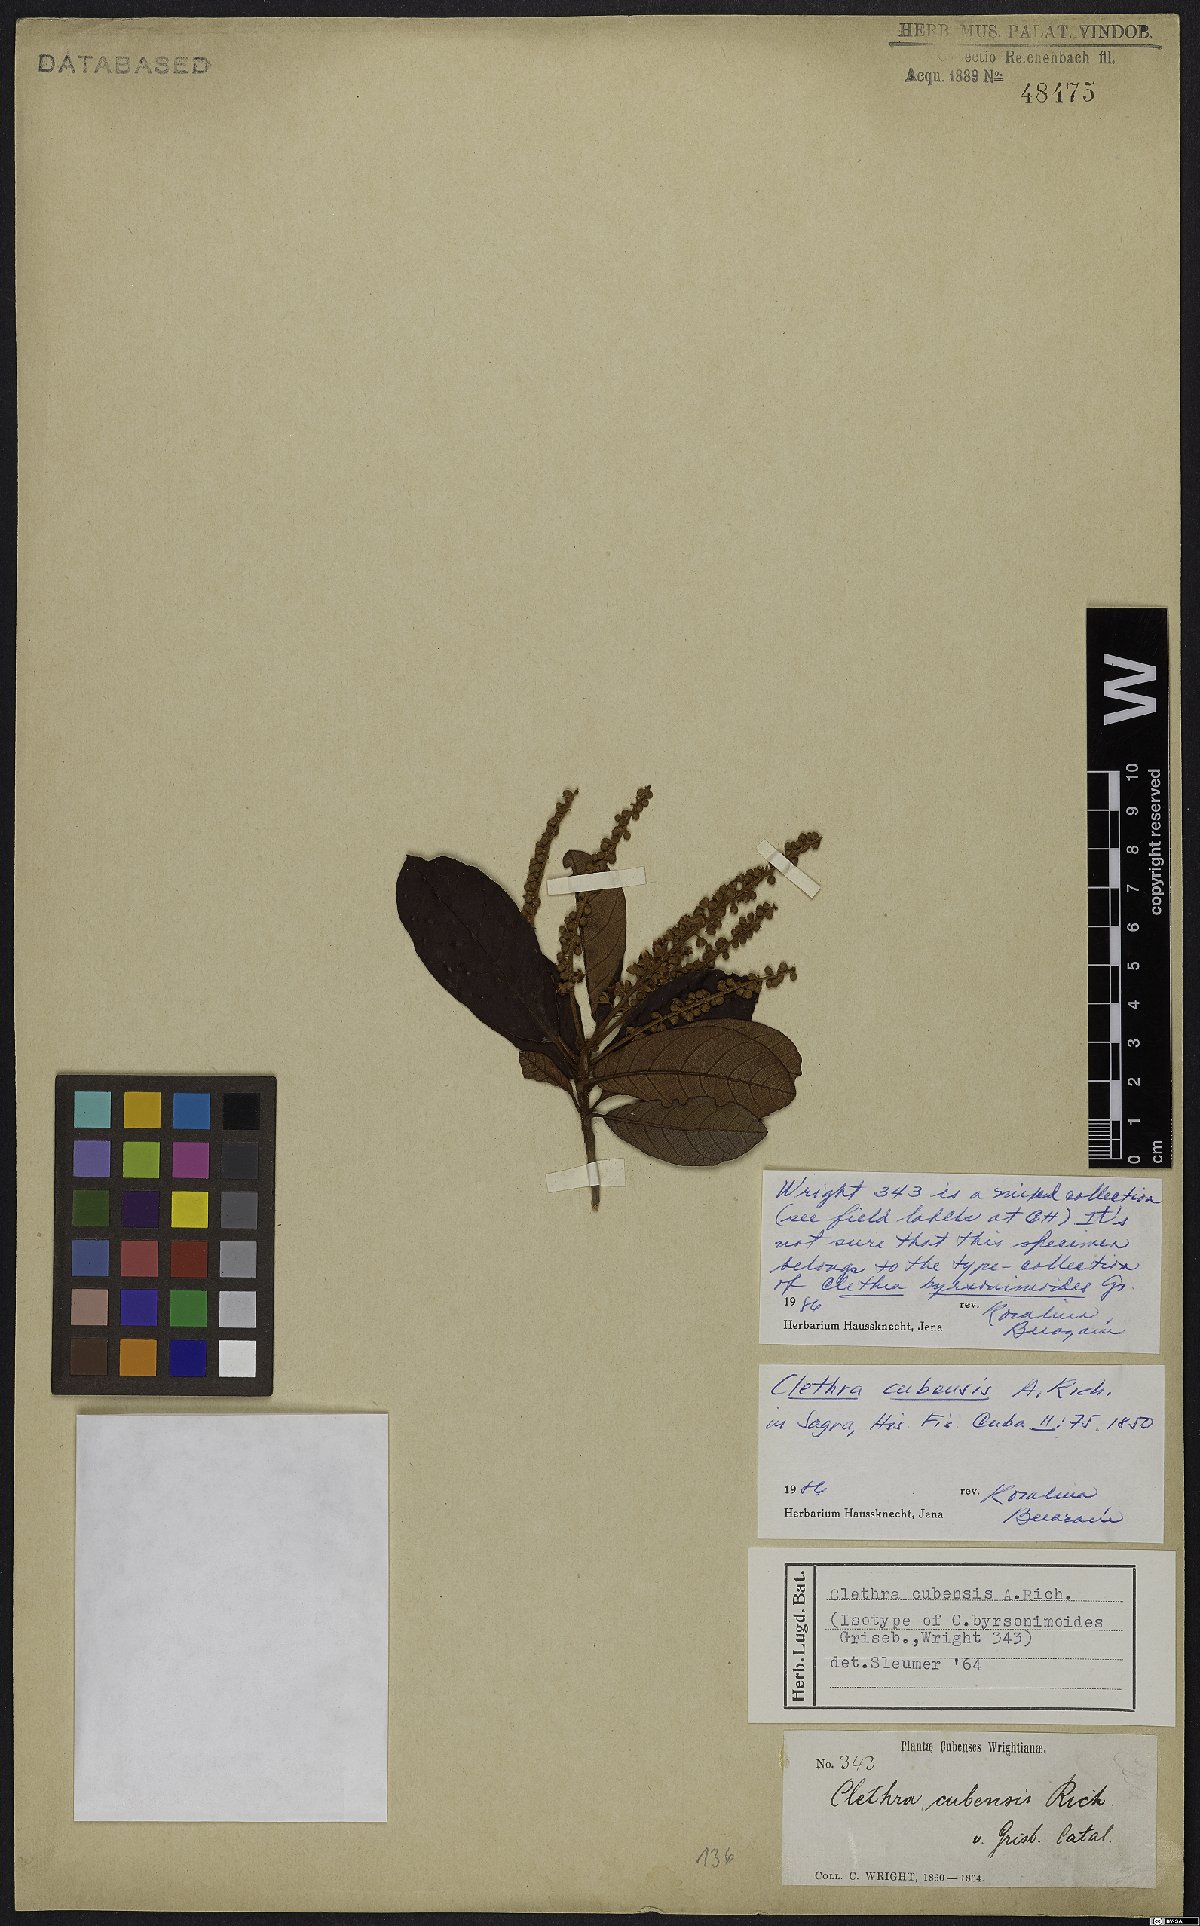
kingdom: Plantae
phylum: Tracheophyta
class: Magnoliopsida
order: Ericales
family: Clethraceae
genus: Clethra
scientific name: Clethra cubensis
